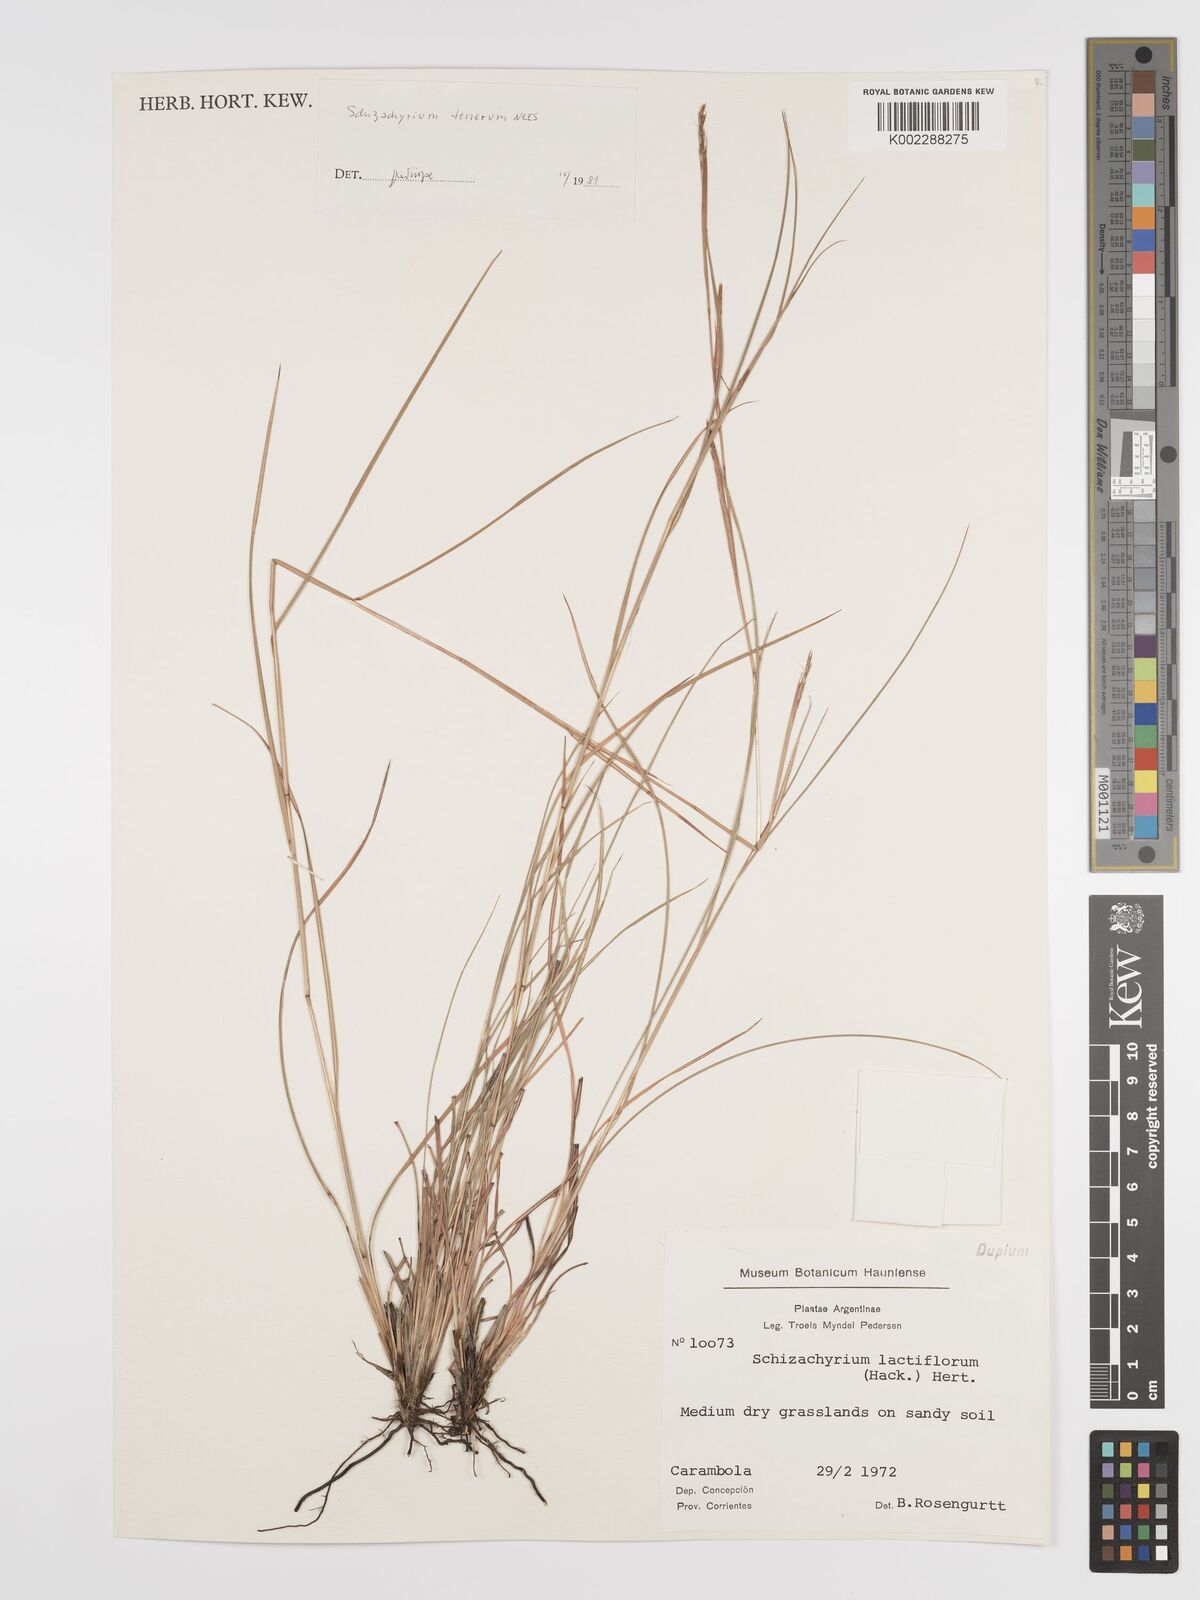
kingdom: Plantae
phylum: Tracheophyta
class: Liliopsida
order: Poales
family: Poaceae
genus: Andropogon
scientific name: Andropogon tener
